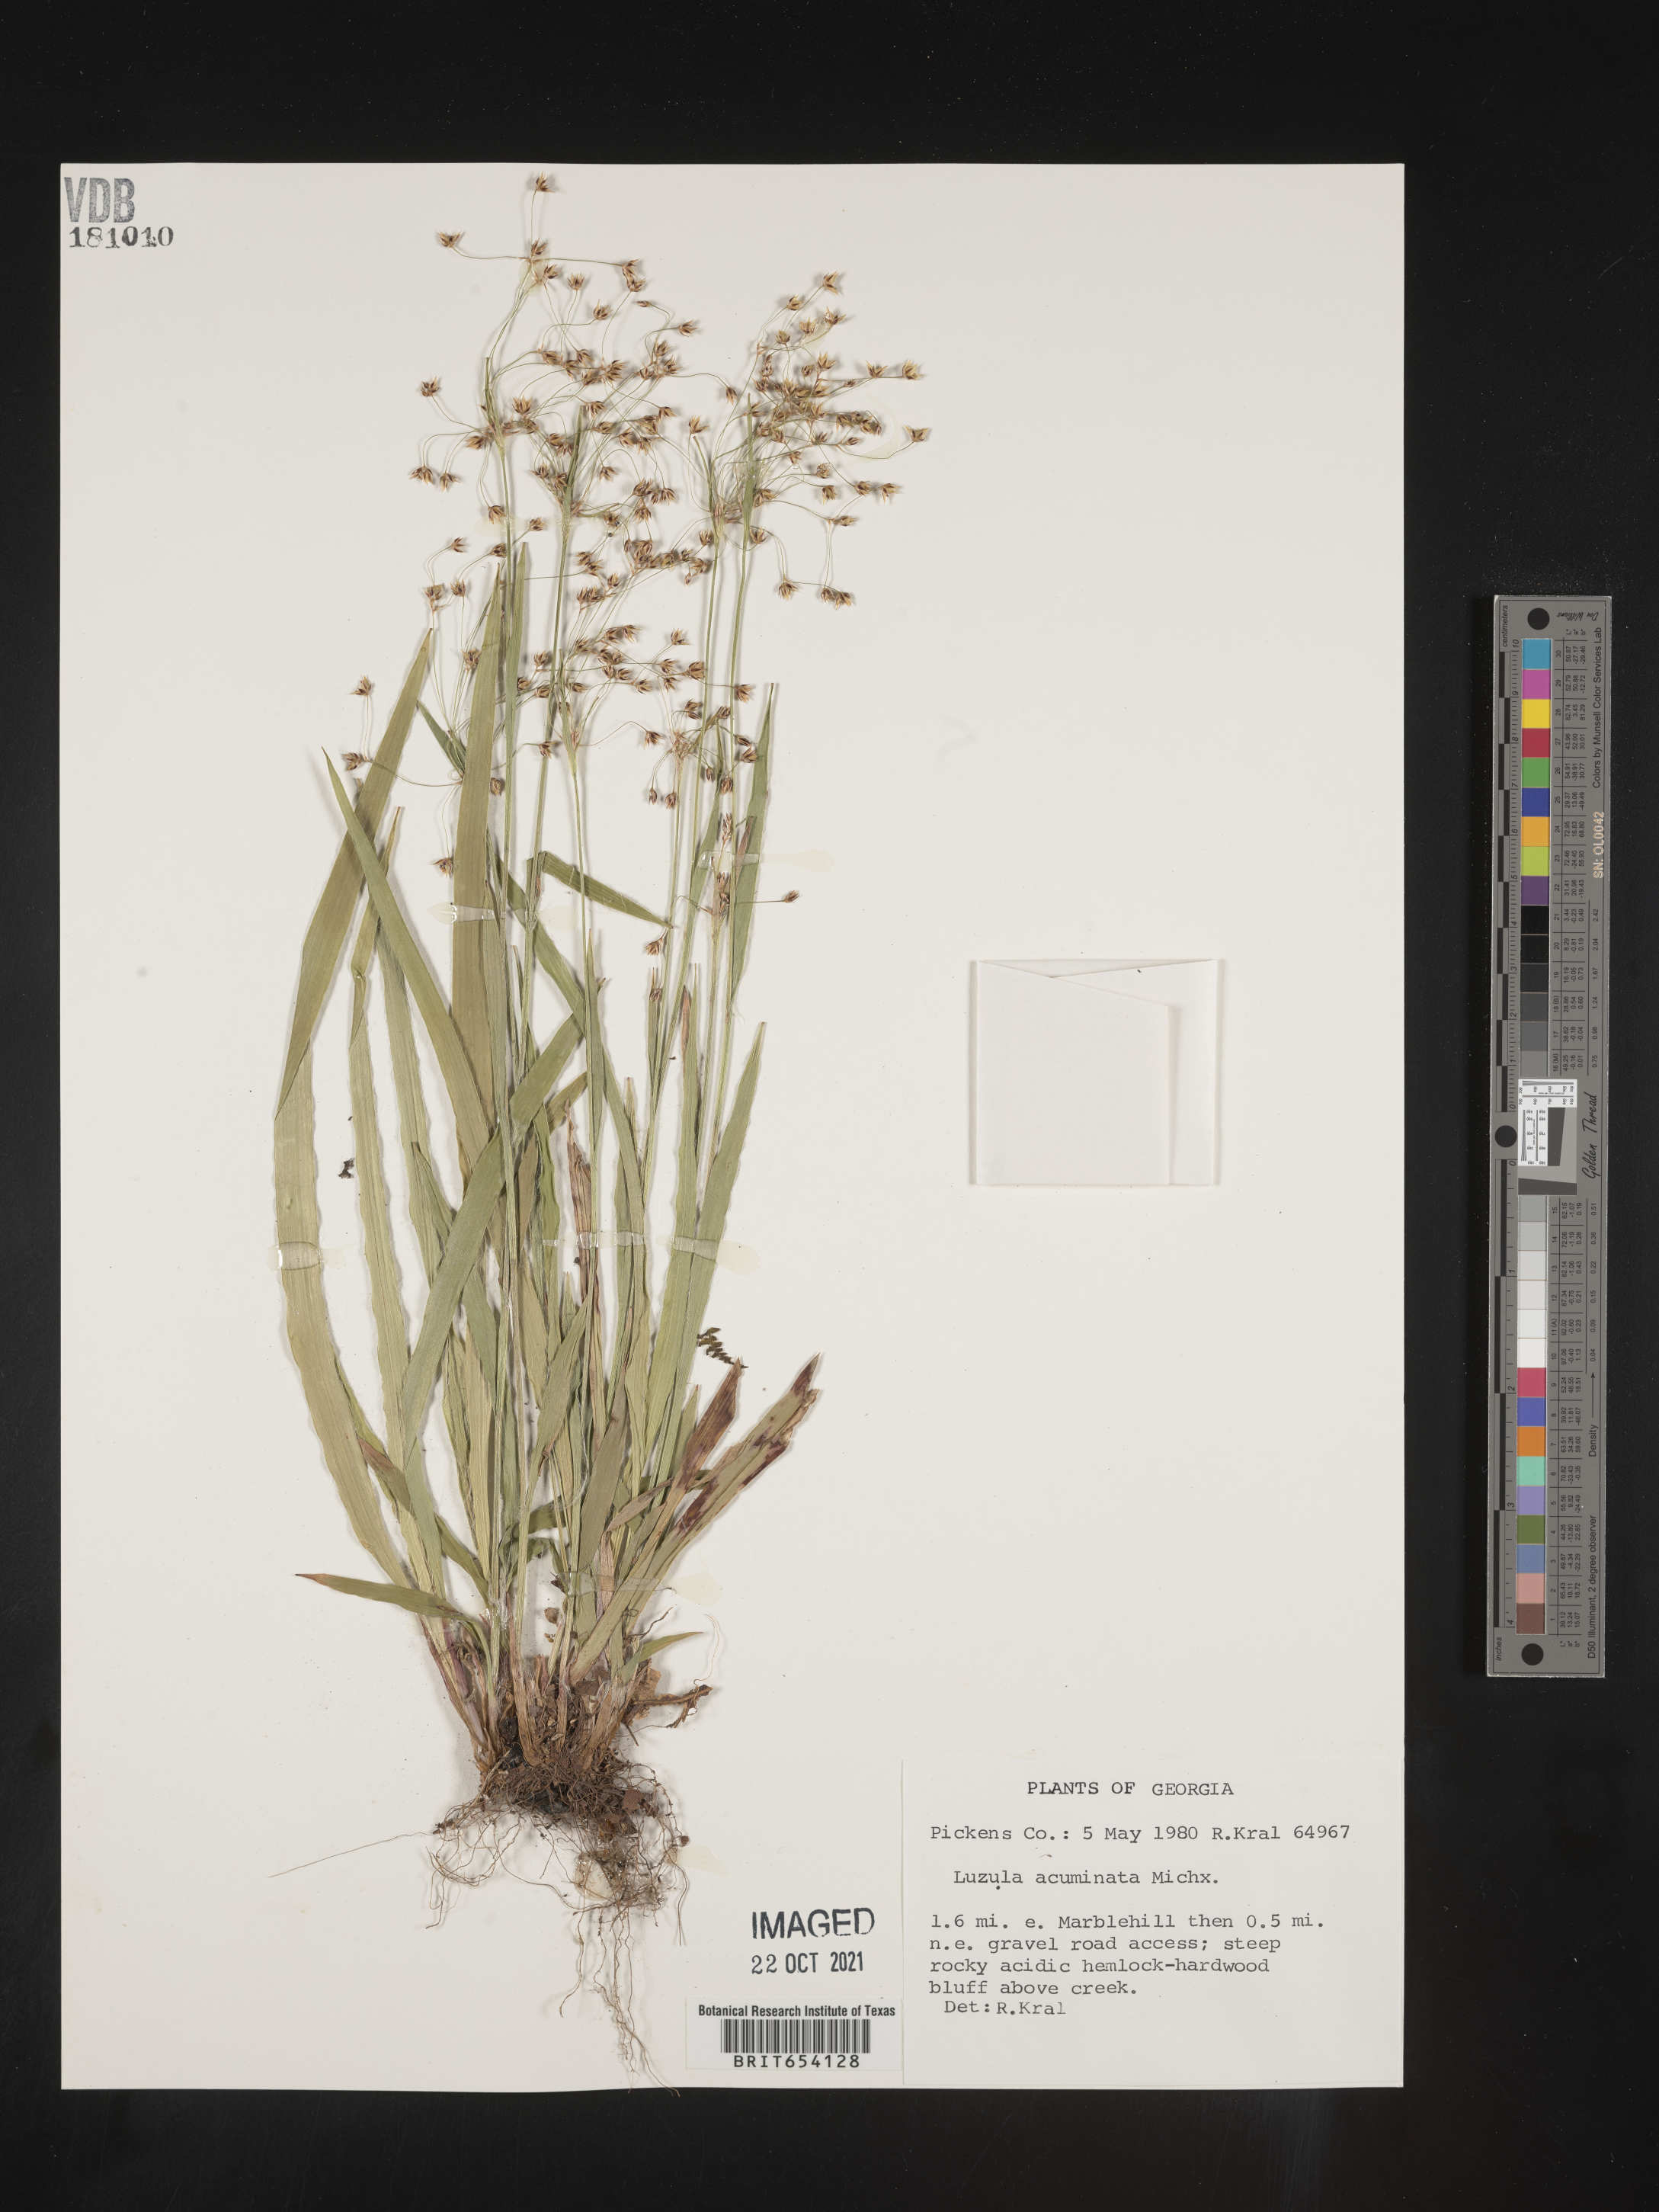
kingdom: Plantae
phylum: Tracheophyta
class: Liliopsida
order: Poales
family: Juncaceae
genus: Luzula
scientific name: Luzula acuminata
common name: Hairy woodrush
